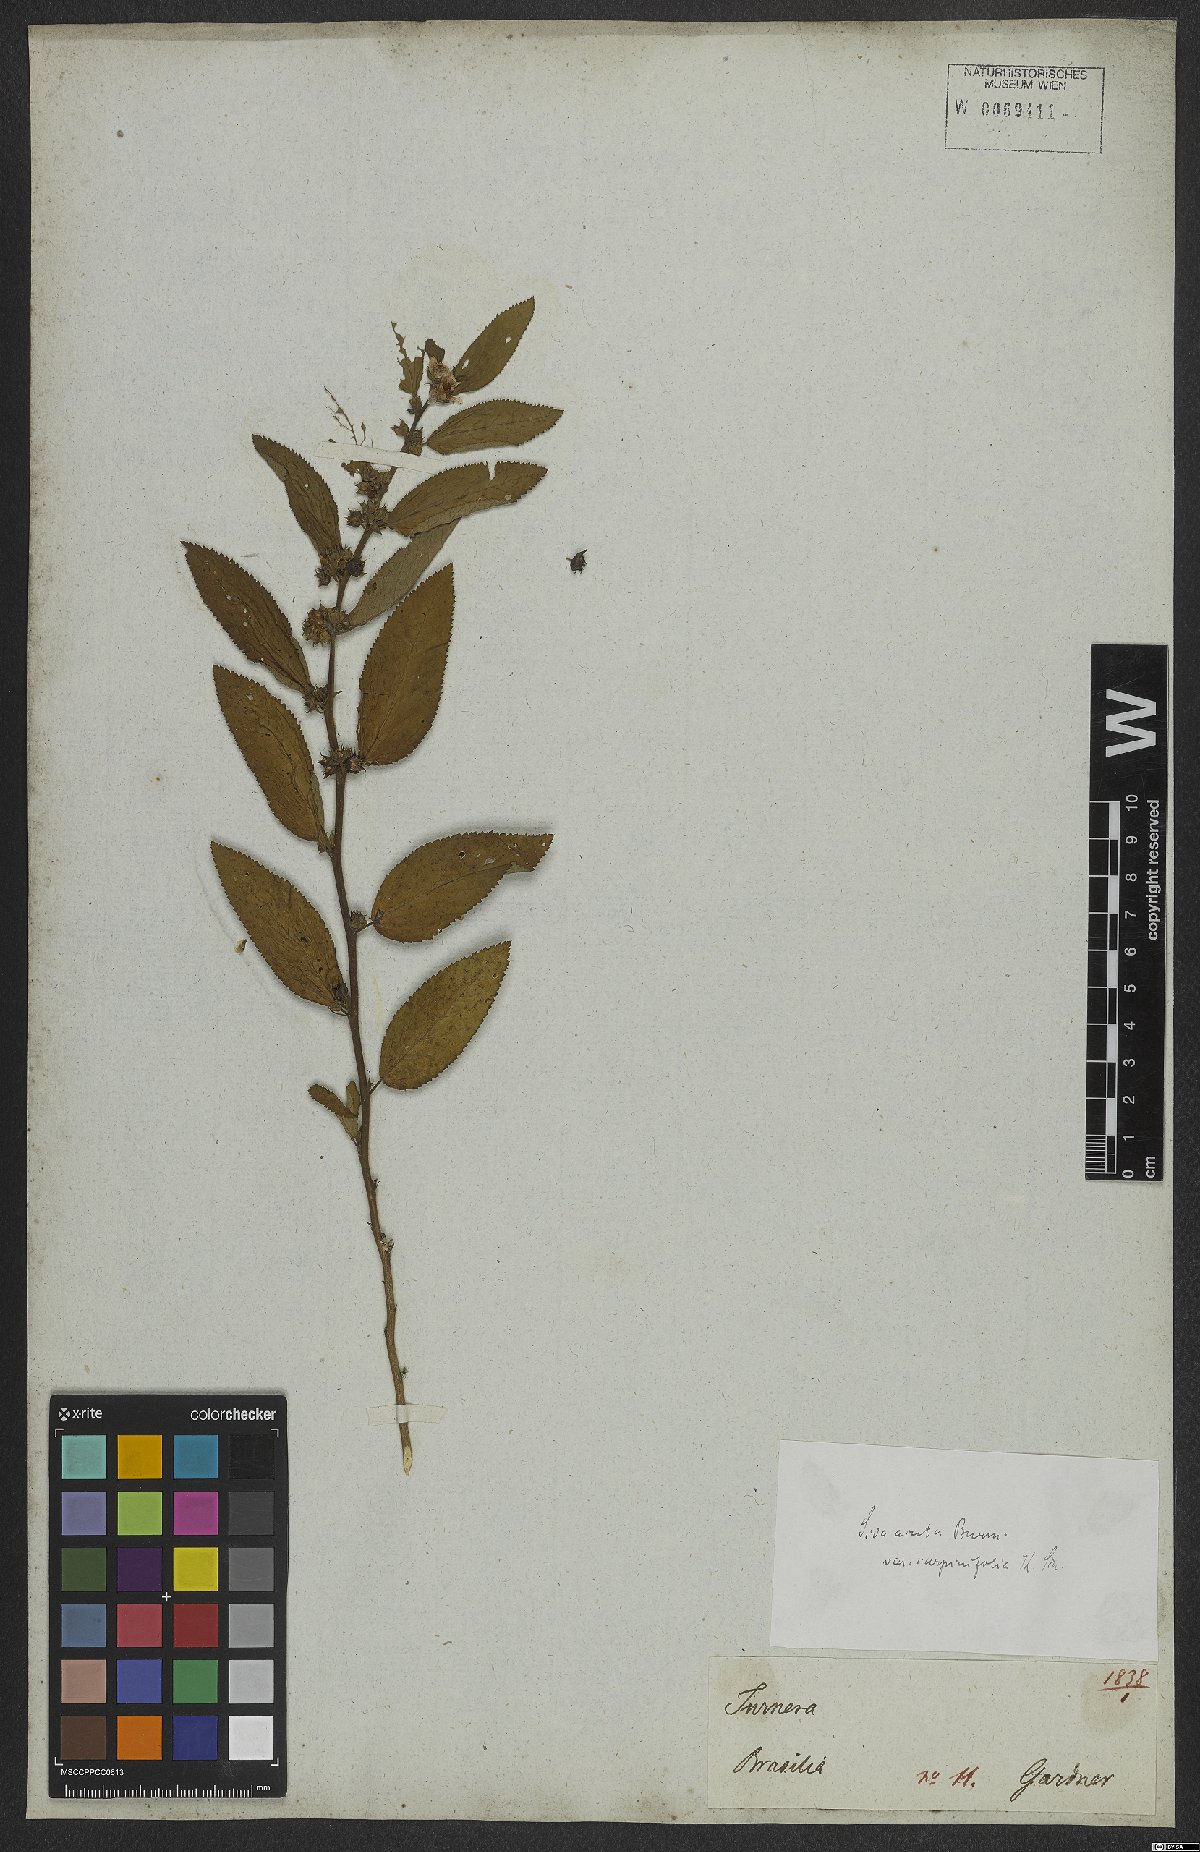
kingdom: Plantae
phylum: Tracheophyta
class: Magnoliopsida
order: Malvales
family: Malvaceae
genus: Sida
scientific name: Sida acuta
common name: Common wireweed
